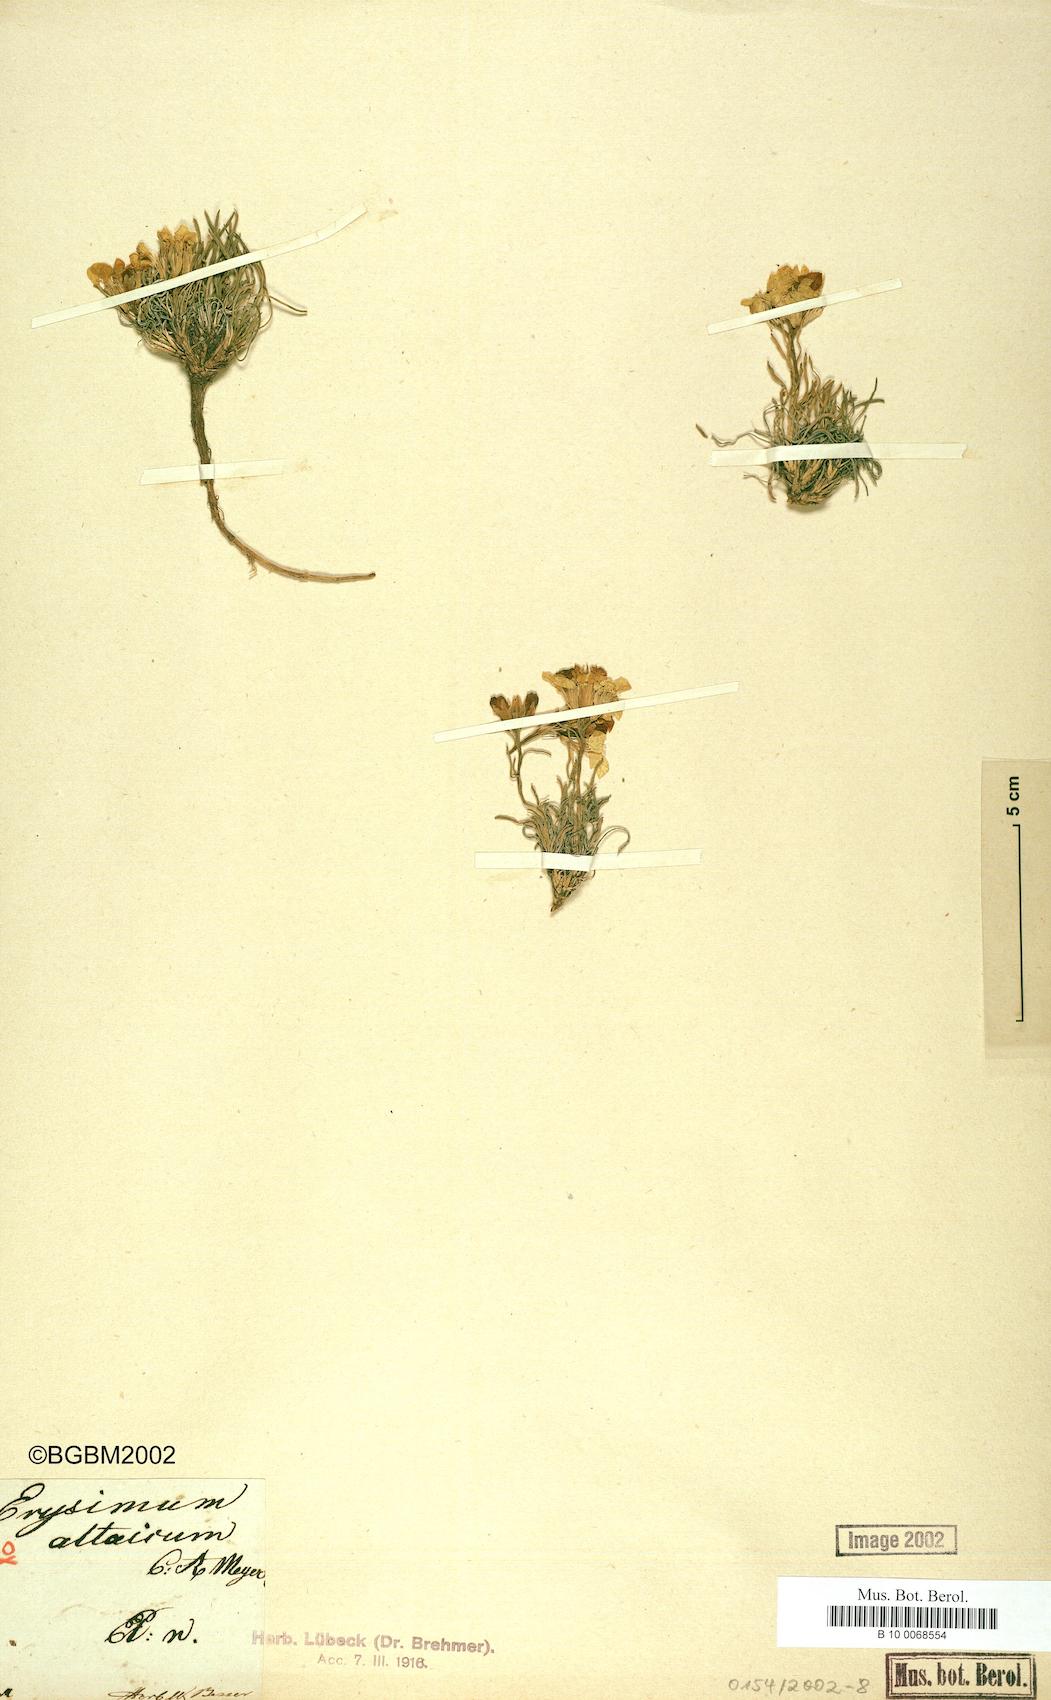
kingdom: Plantae
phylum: Tracheophyta
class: Magnoliopsida
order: Brassicales
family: Brassicaceae
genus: Erysimum
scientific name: Erysimum altaicum
